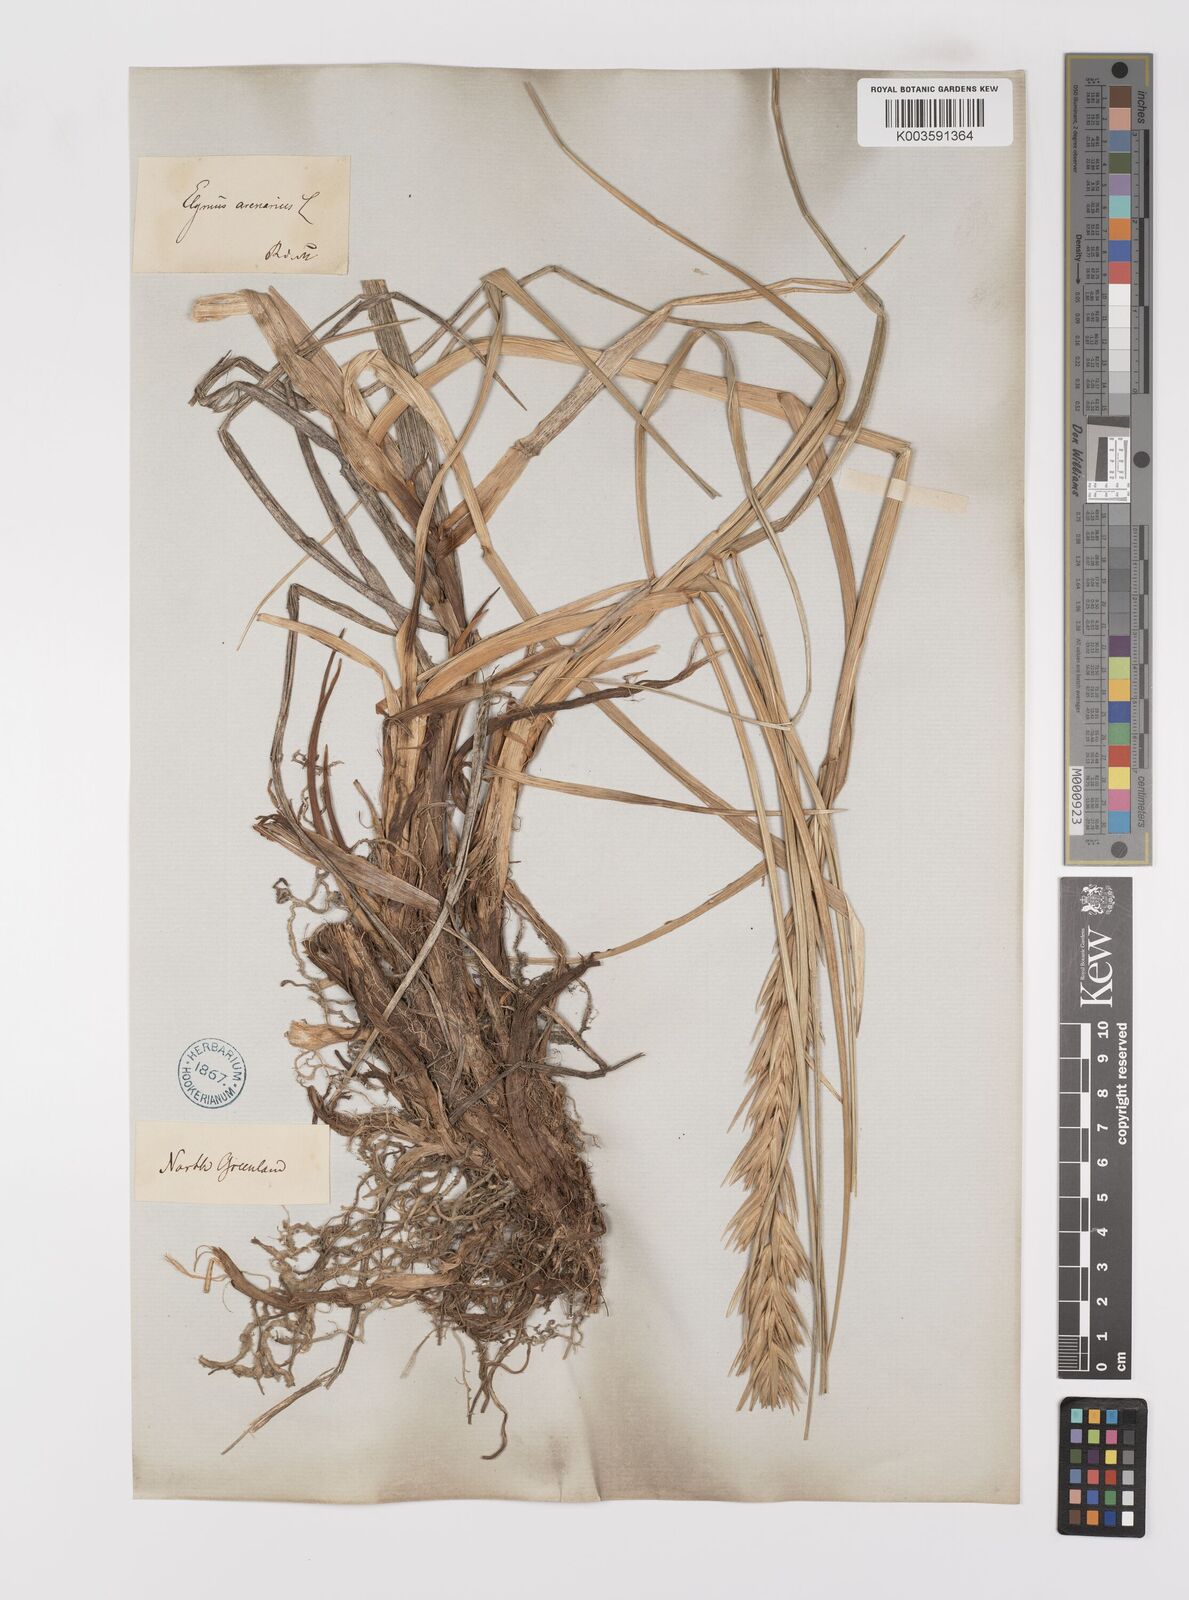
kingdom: Plantae
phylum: Tracheophyta
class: Liliopsida
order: Poales
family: Poaceae
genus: Leymus
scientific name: Leymus mollis
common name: American dune grass
